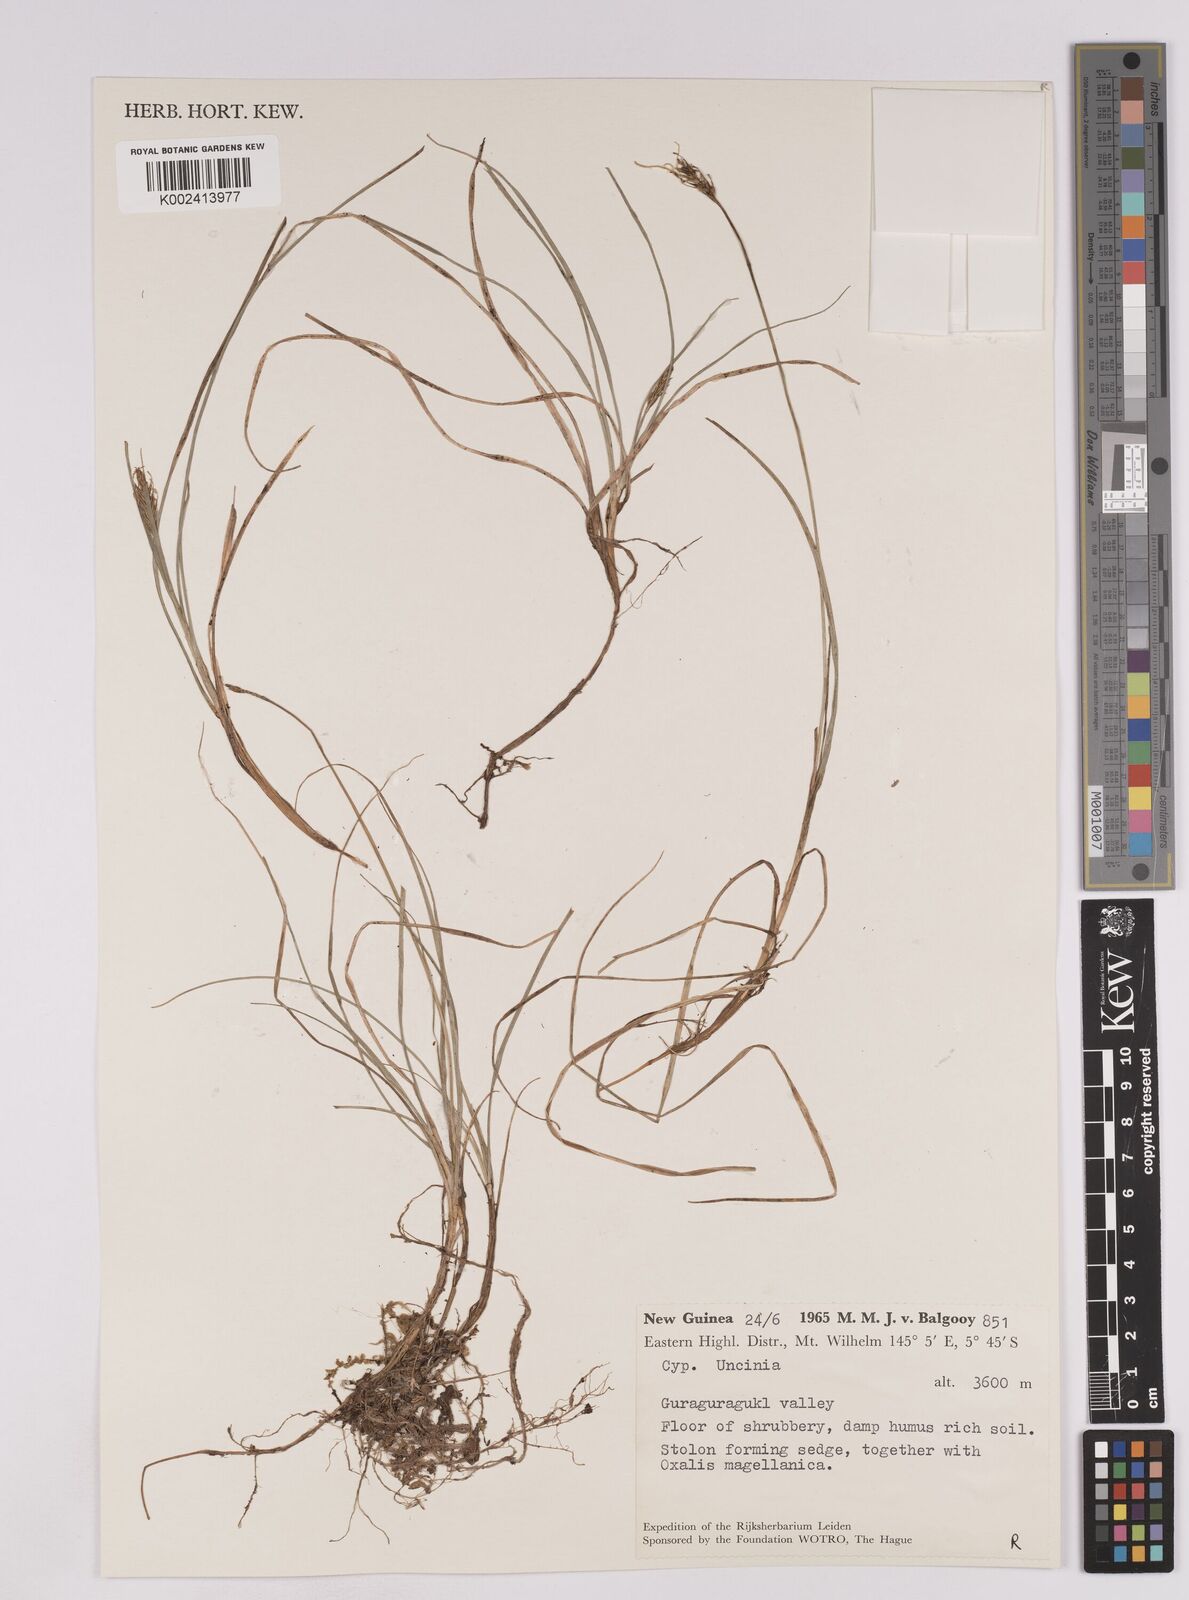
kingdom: Plantae
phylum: Tracheophyta
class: Liliopsida
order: Poales
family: Cyperaceae
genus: Carex
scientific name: Carex austrocompacta
